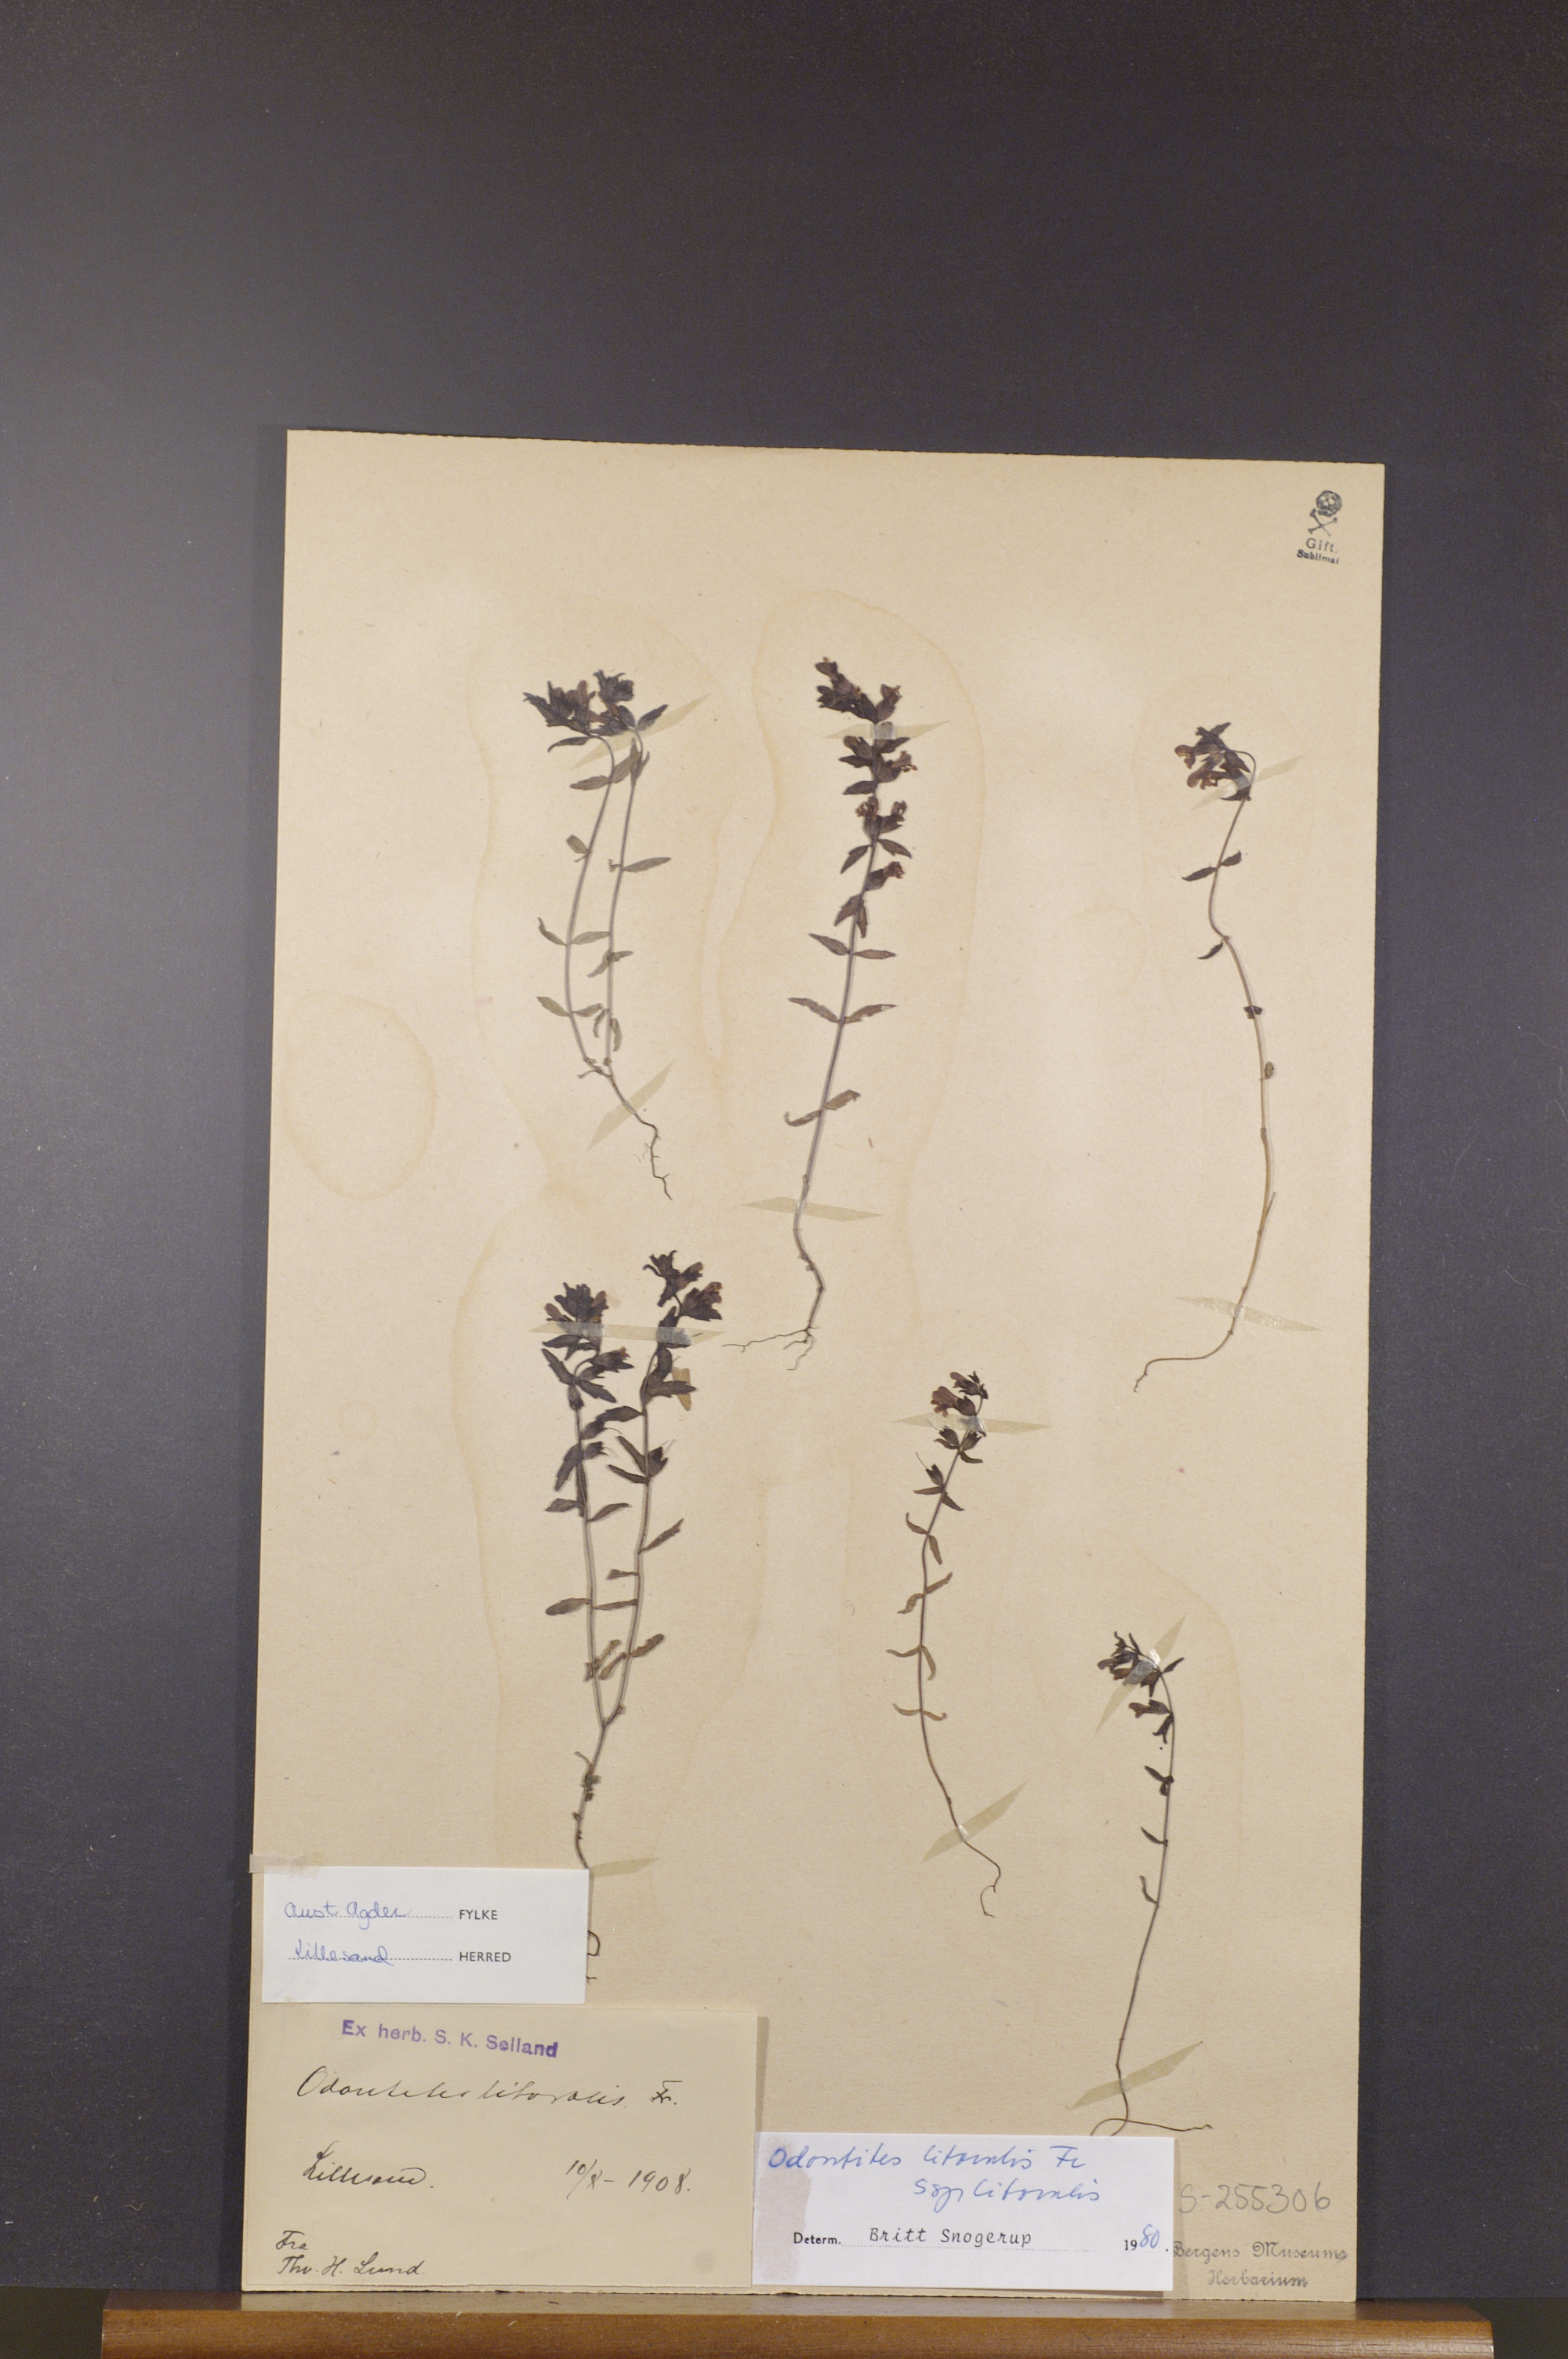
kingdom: Plantae
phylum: Tracheophyta
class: Magnoliopsida
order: Lamiales
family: Orobanchaceae
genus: Odontites
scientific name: Odontites litoralis
